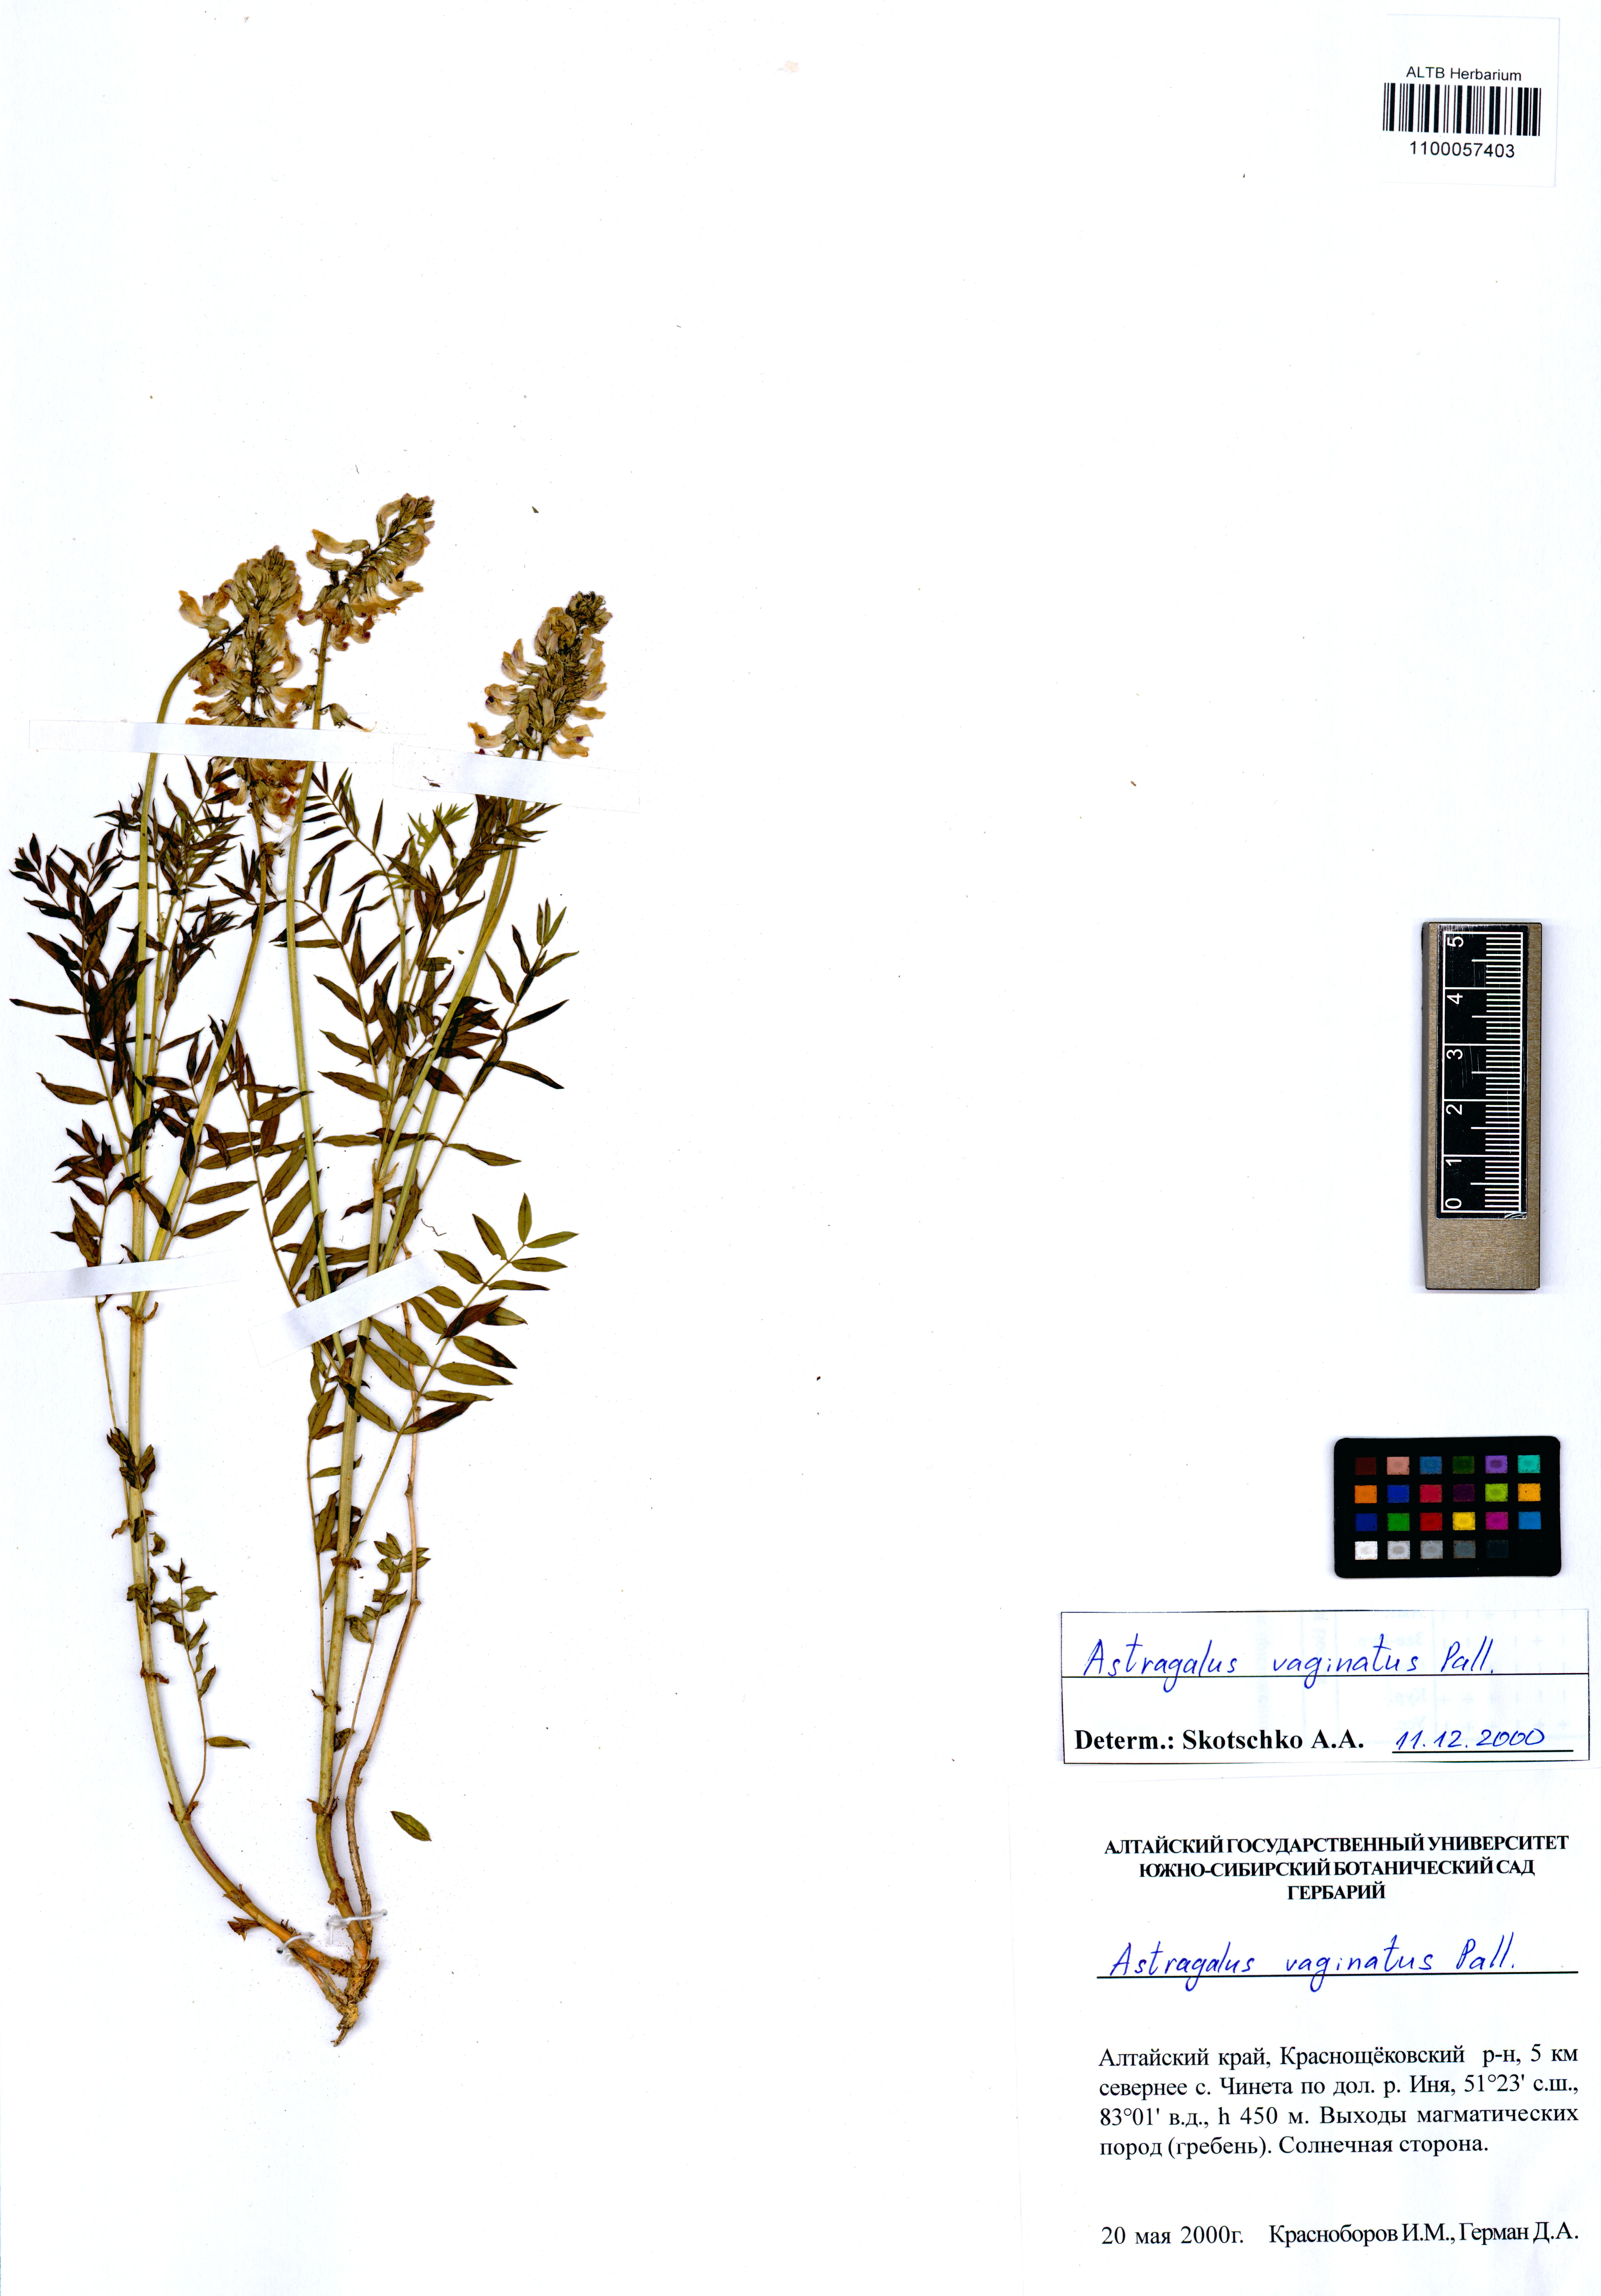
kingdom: Plantae
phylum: Tracheophyta
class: Magnoliopsida
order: Fabales
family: Fabaceae
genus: Astragalus
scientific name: Astragalus vaginatus
